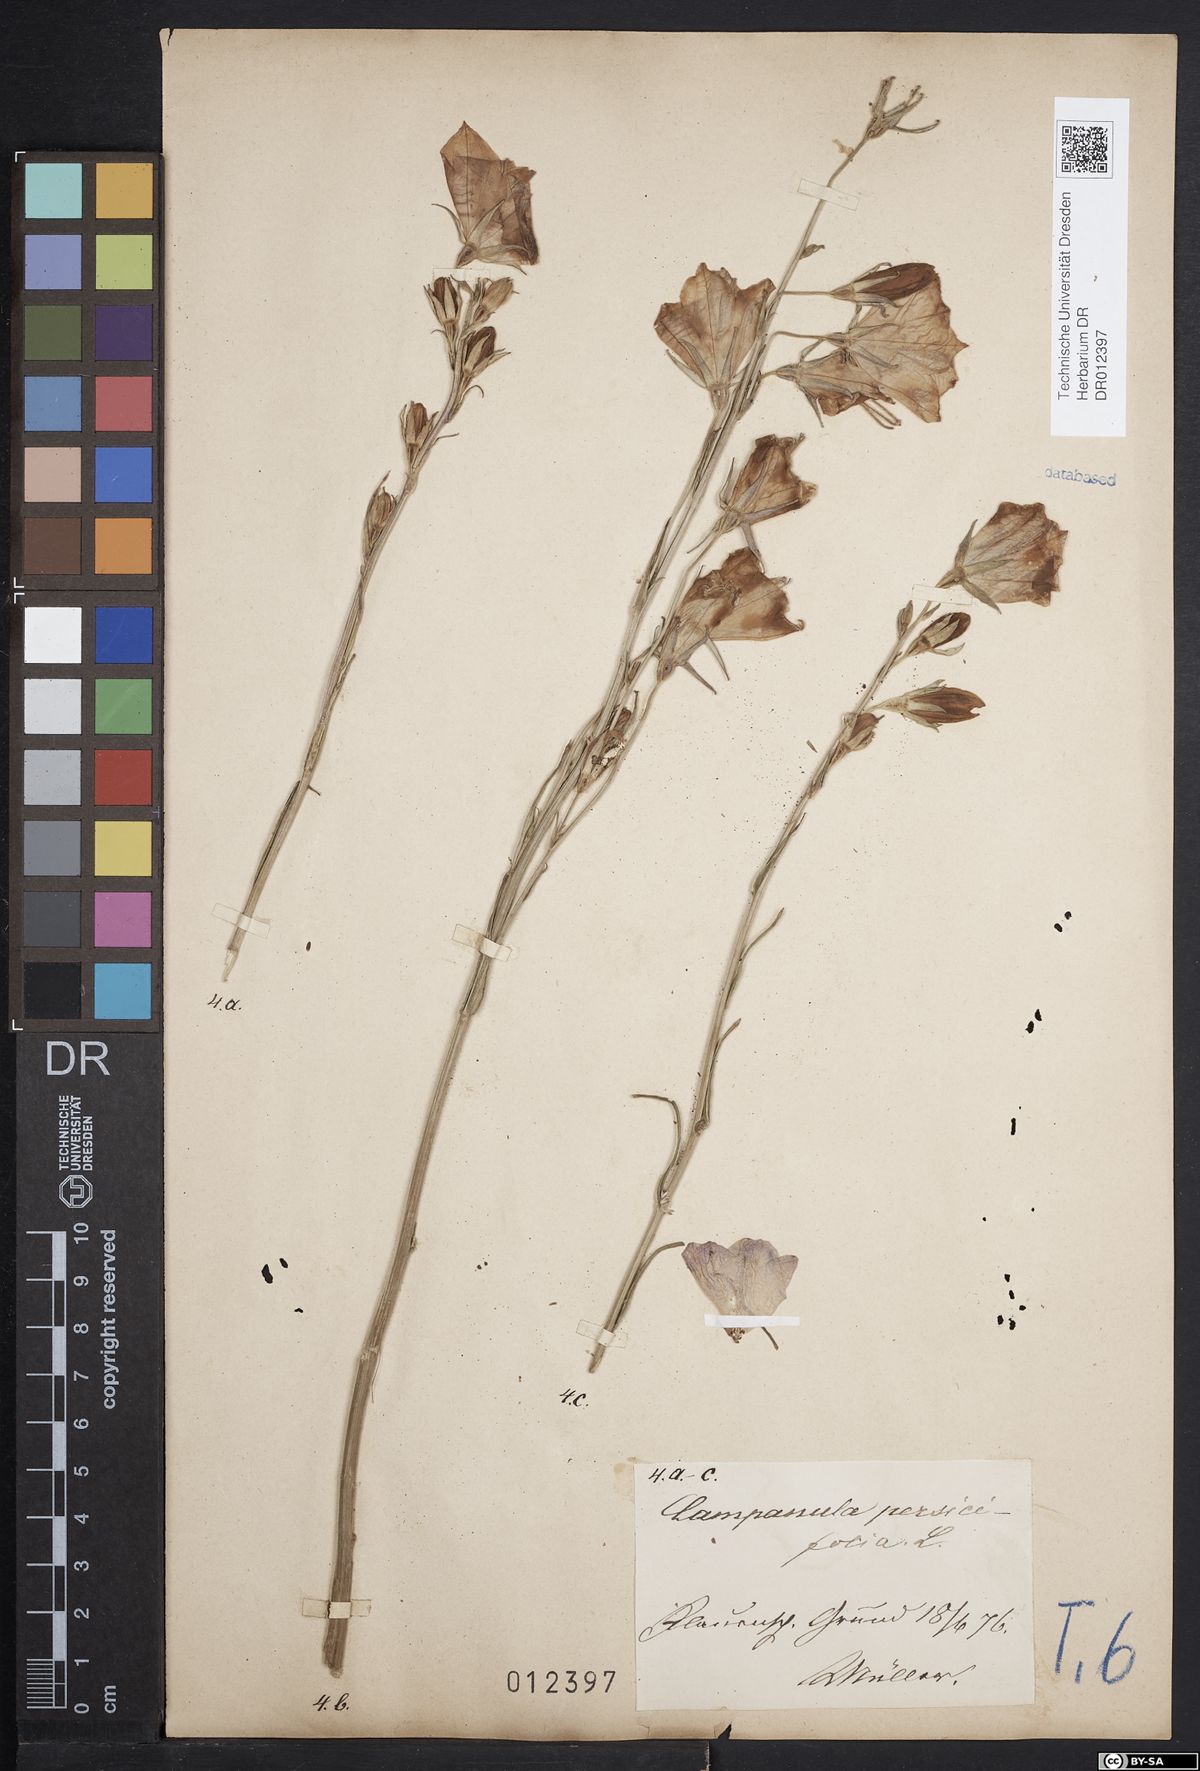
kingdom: Plantae
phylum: Tracheophyta
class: Magnoliopsida
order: Asterales
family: Campanulaceae
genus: Campanula
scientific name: Campanula persicifolia
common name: Peach-leaved bellflower
